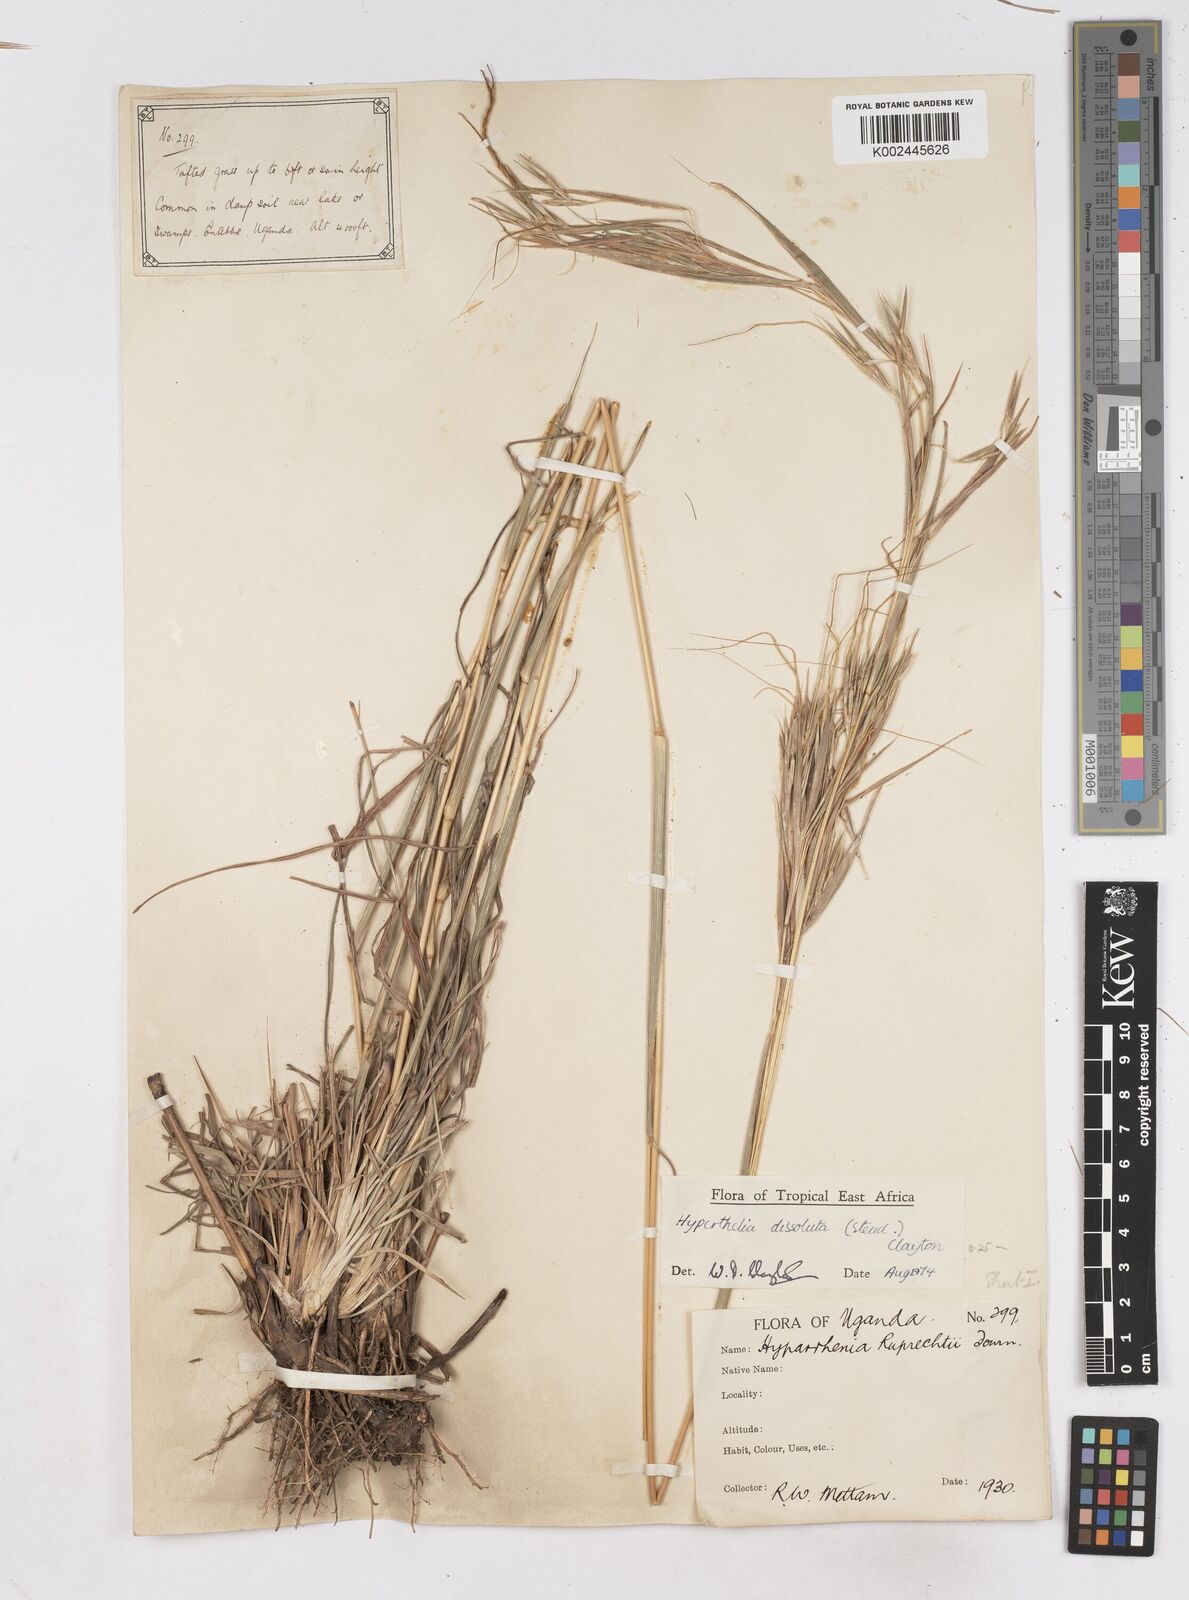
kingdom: Plantae
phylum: Tracheophyta
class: Liliopsida
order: Poales
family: Poaceae
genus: Hyperthelia
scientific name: Hyperthelia dissoluta
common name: Yellow thatching grass
